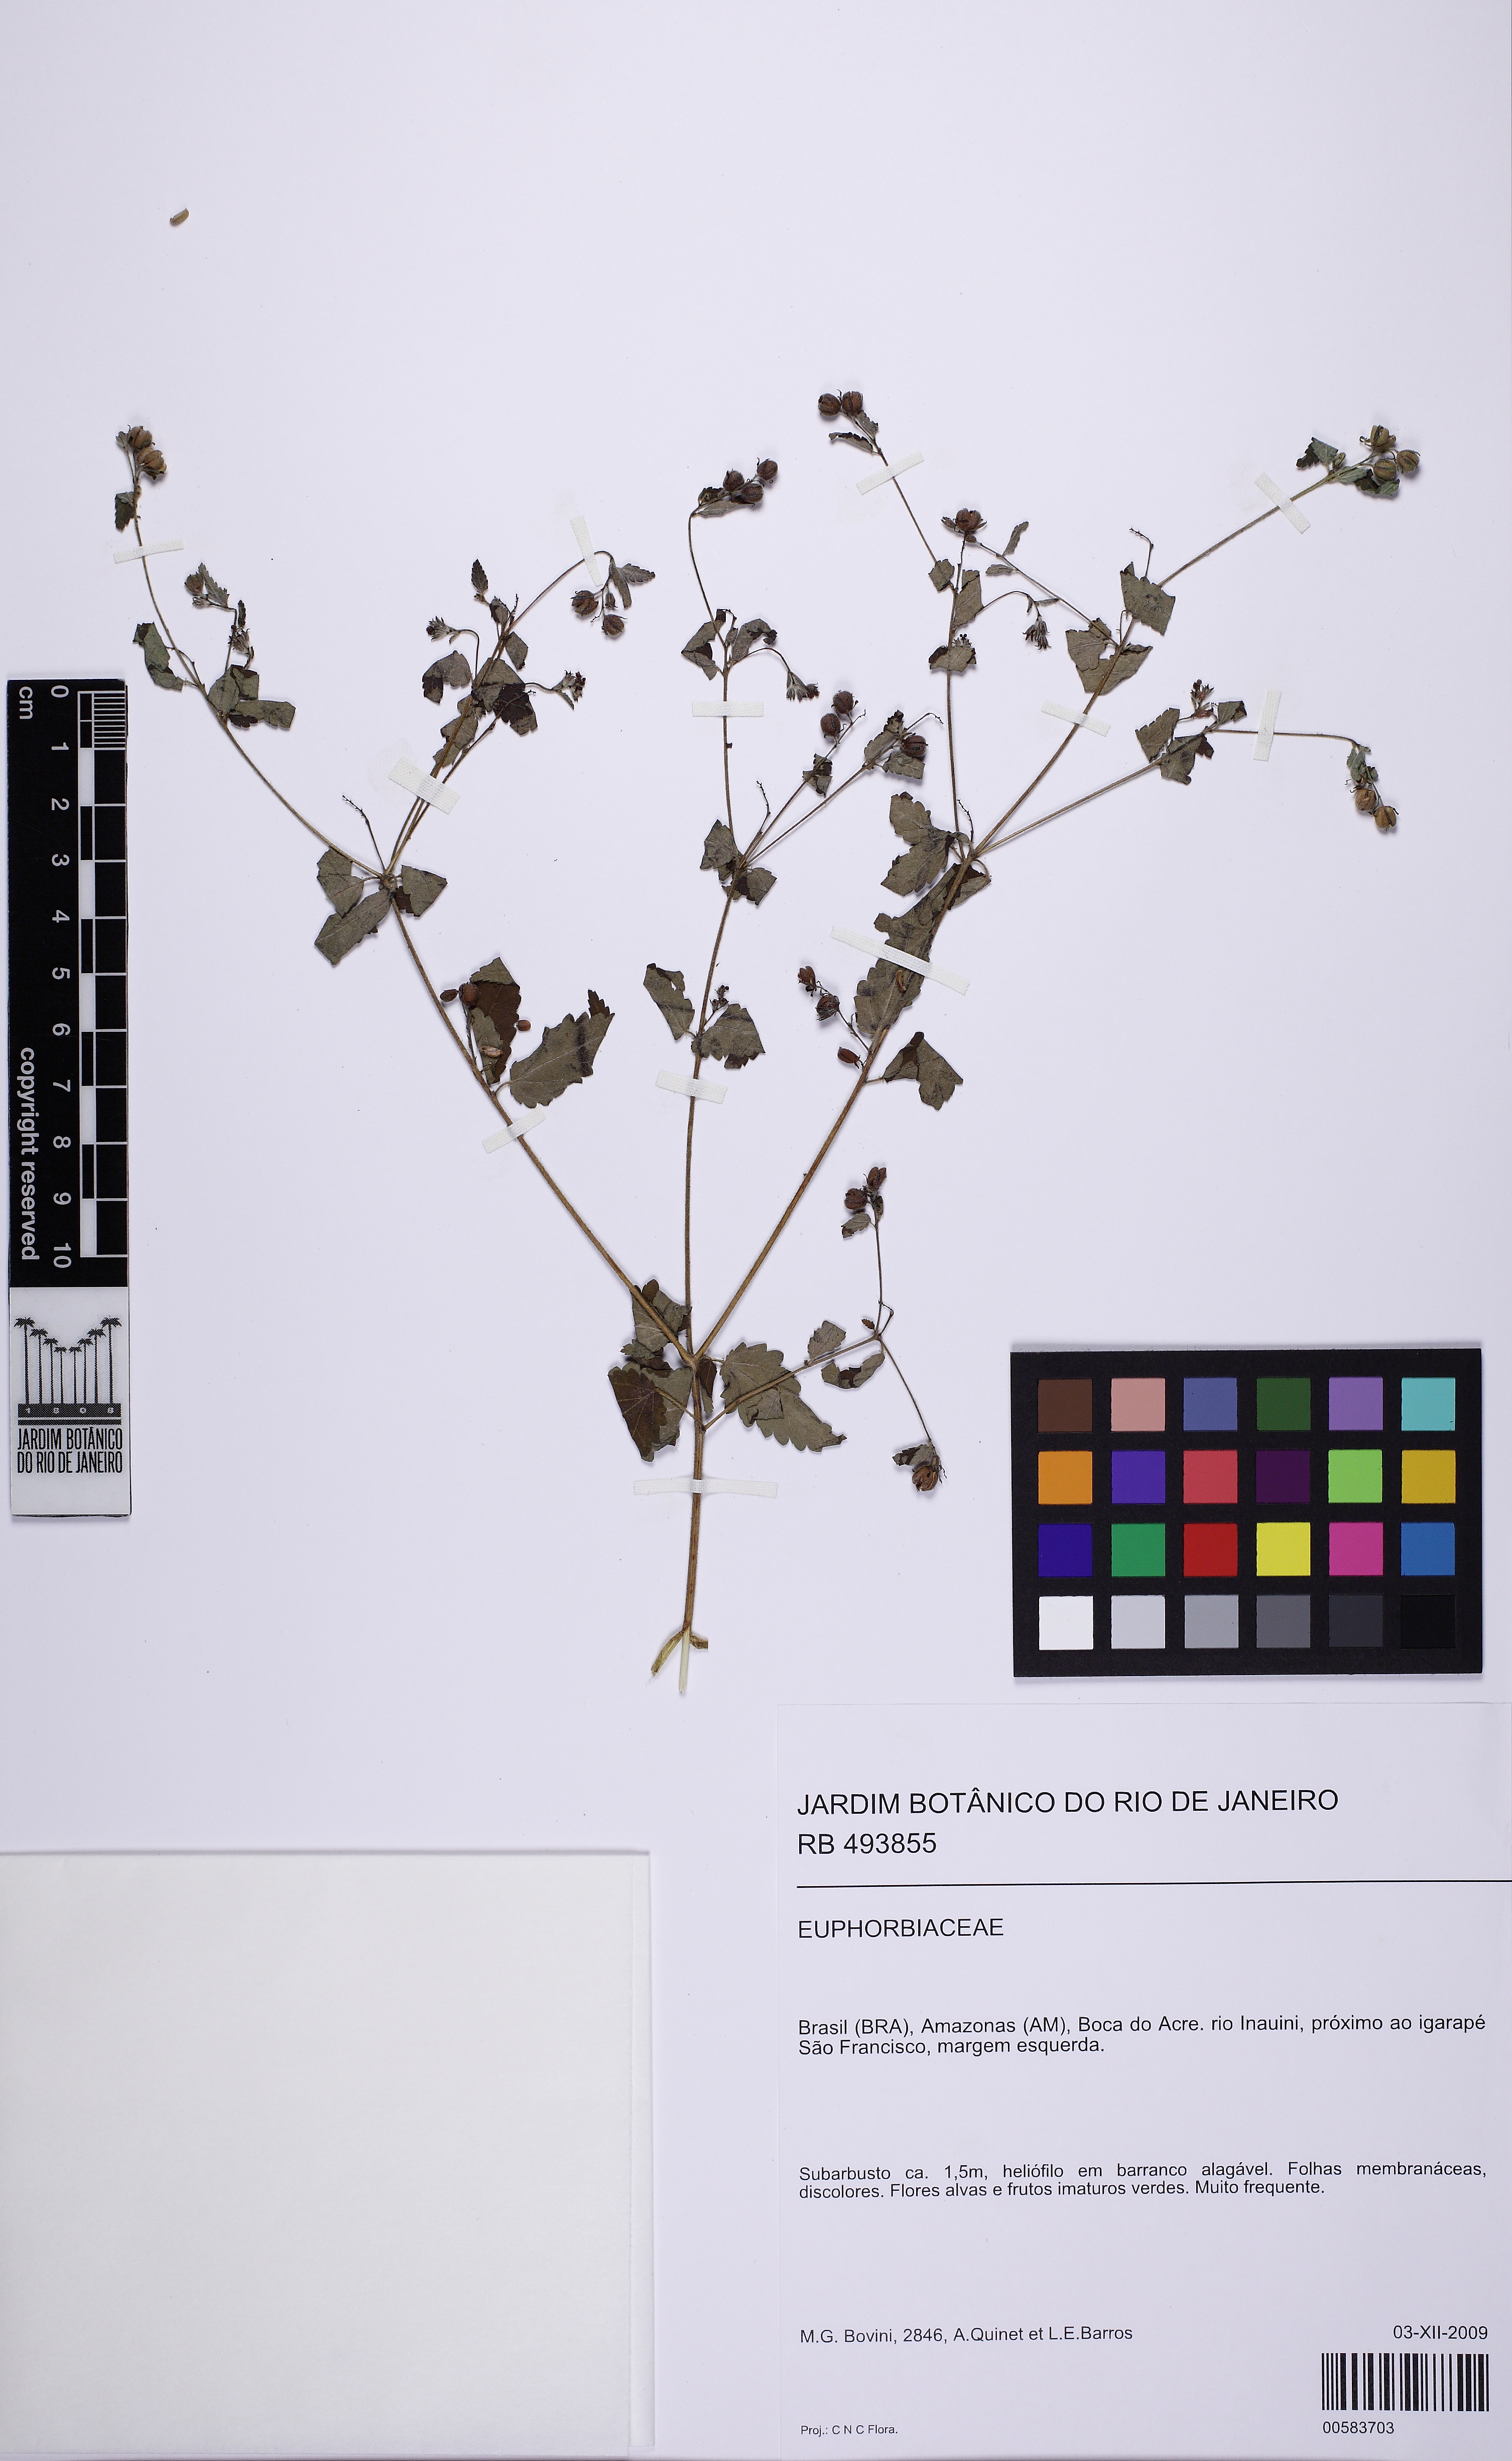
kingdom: Plantae
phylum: Tracheophyta
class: Magnoliopsida
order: Malpighiales
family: Euphorbiaceae
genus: Croton
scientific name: Croton trinitatis
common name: Roadside croton
